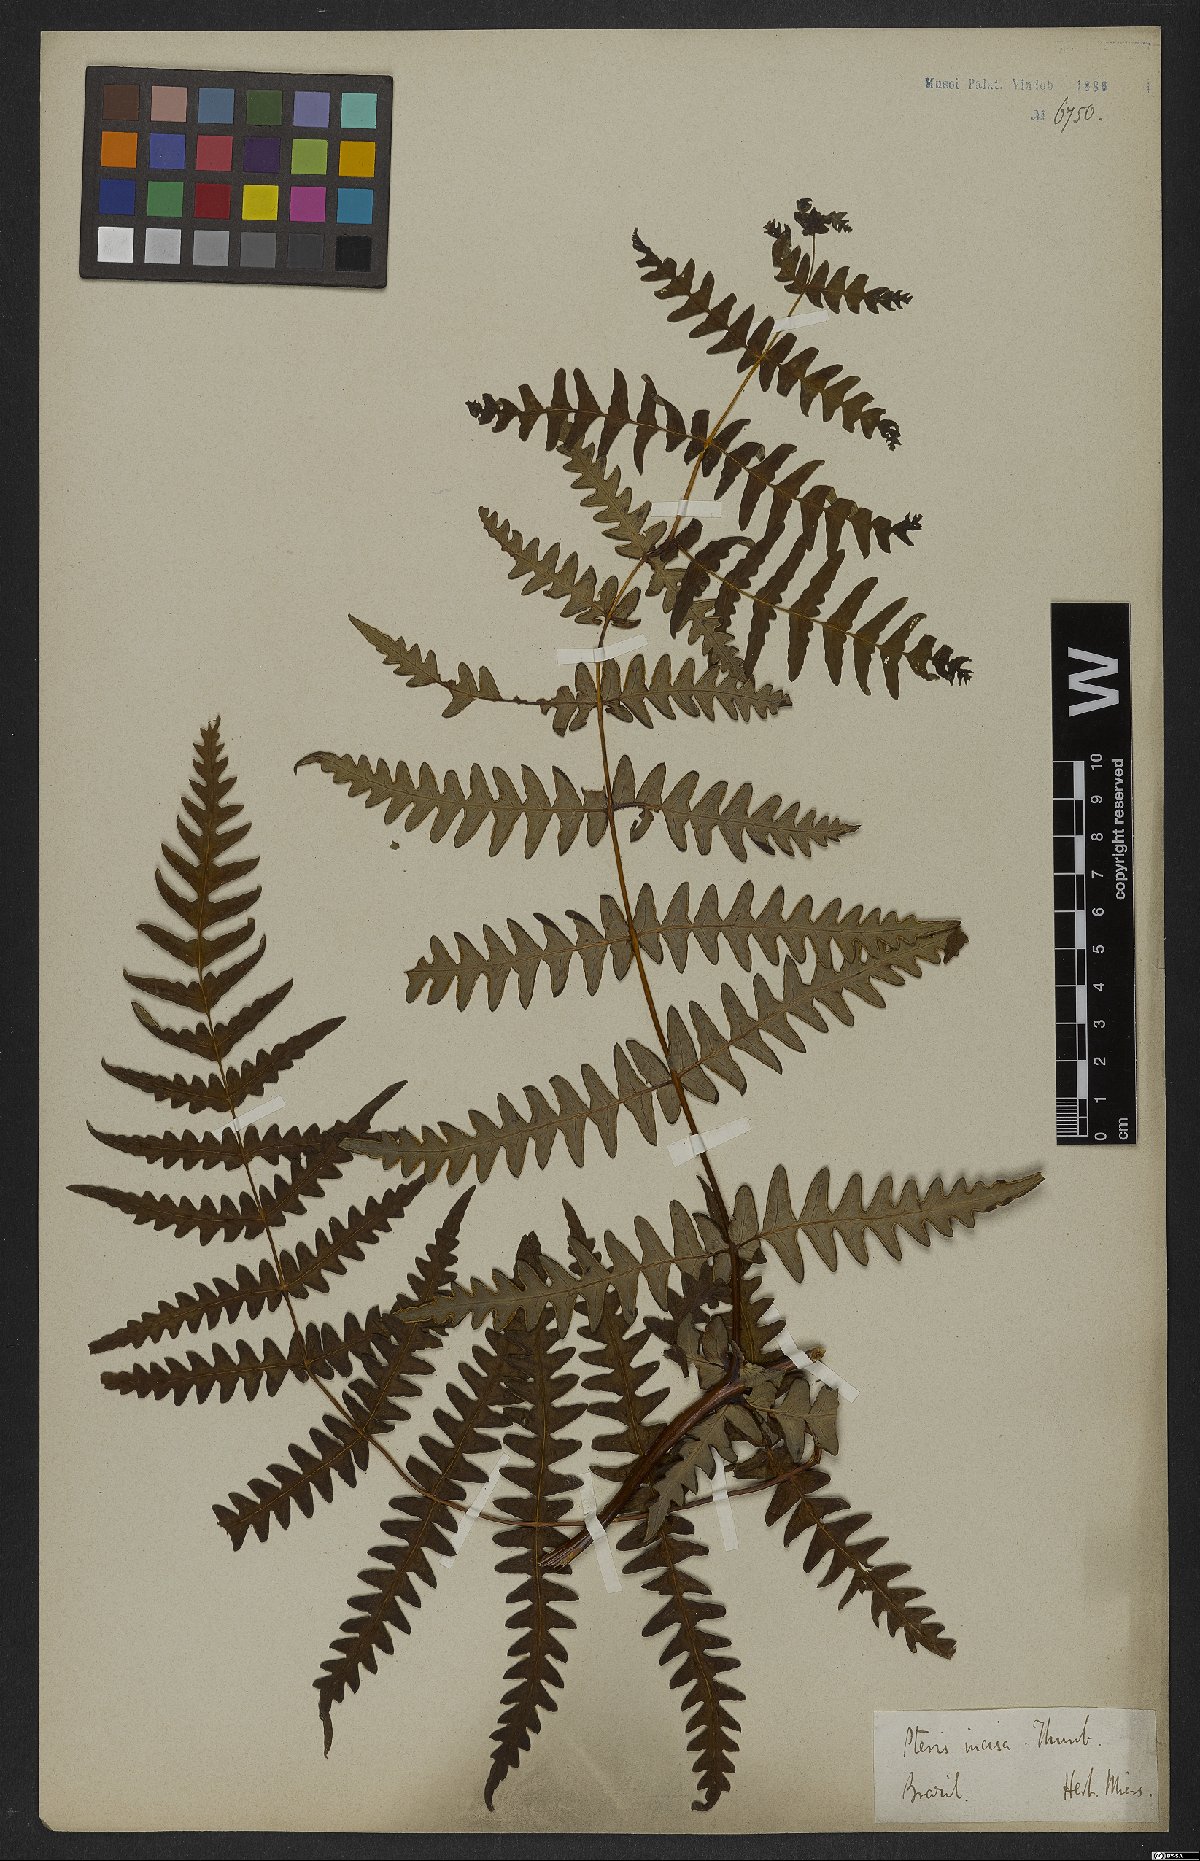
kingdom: Plantae
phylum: Tracheophyta
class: Polypodiopsida
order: Polypodiales
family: Dennstaedtiaceae
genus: Histiopteris
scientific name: Histiopteris incisa
